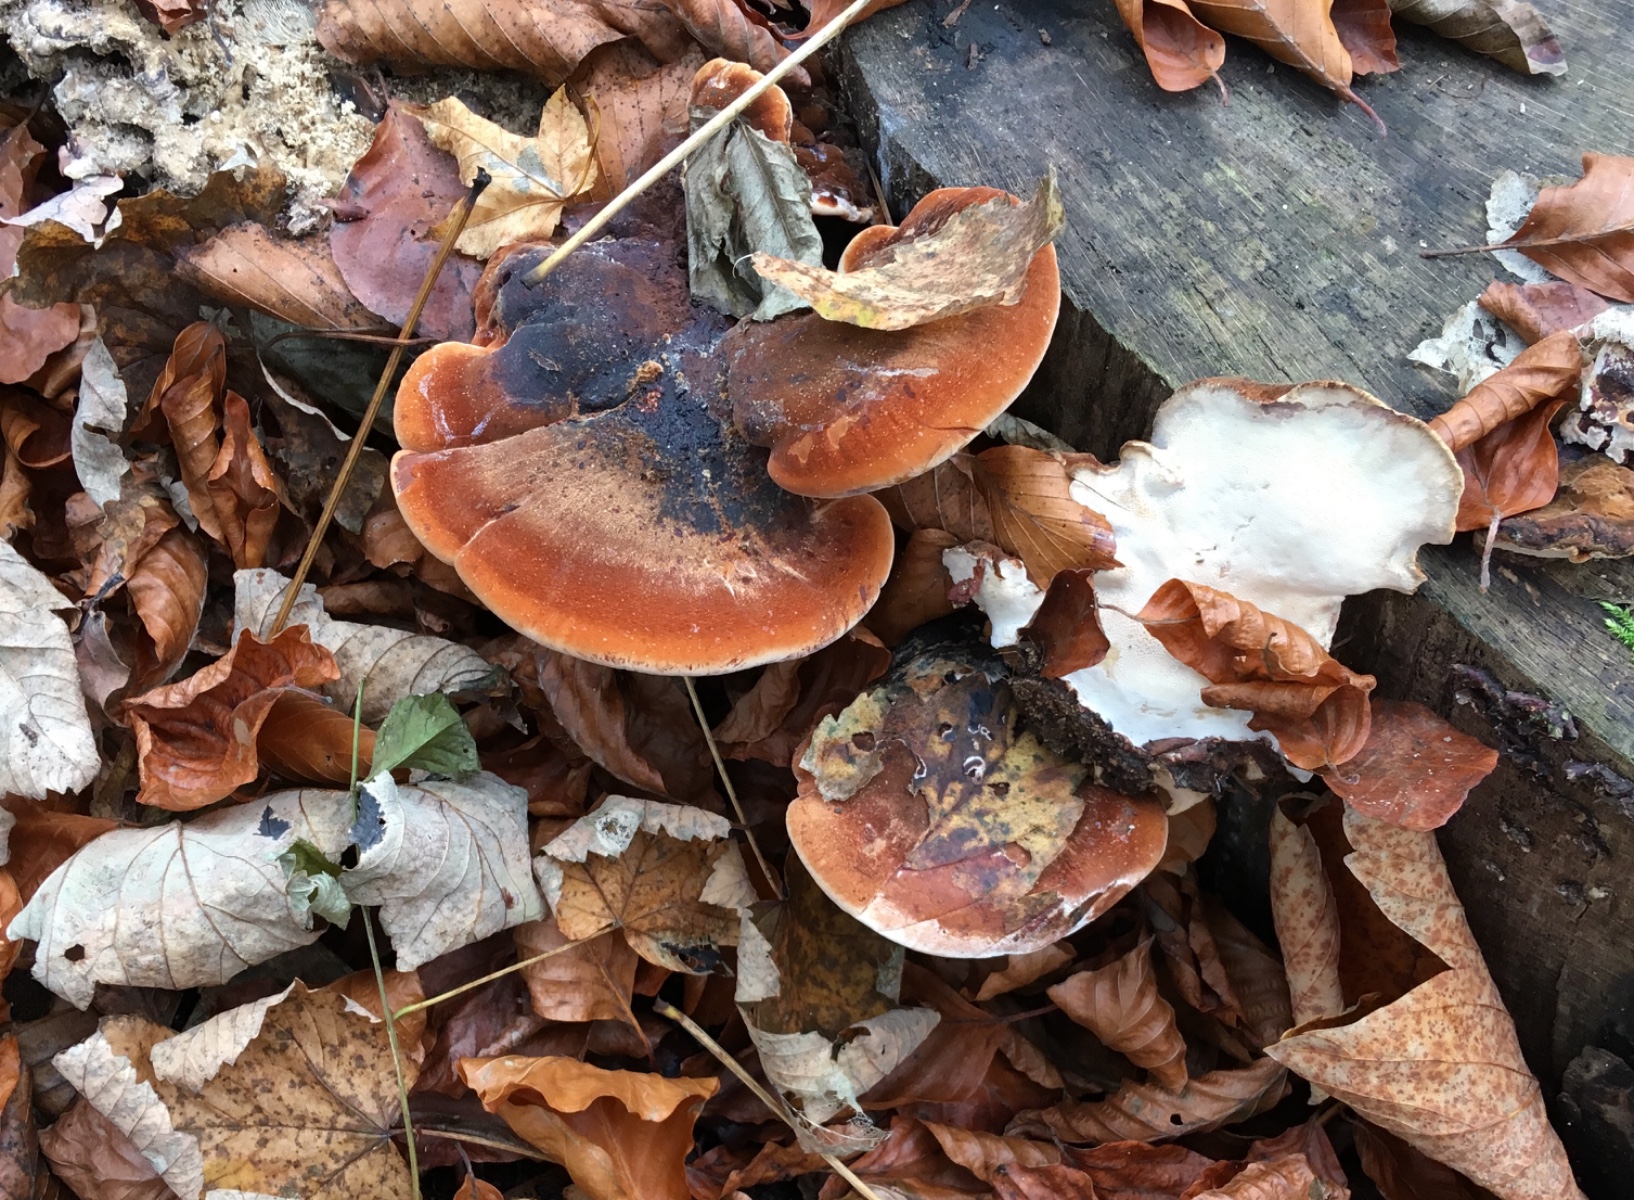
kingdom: Fungi
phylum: Basidiomycota
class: Agaricomycetes
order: Polyporales
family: Ischnodermataceae
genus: Ischnoderma
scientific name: Ischnoderma resinosum
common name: løv-tjæreporesvamp
